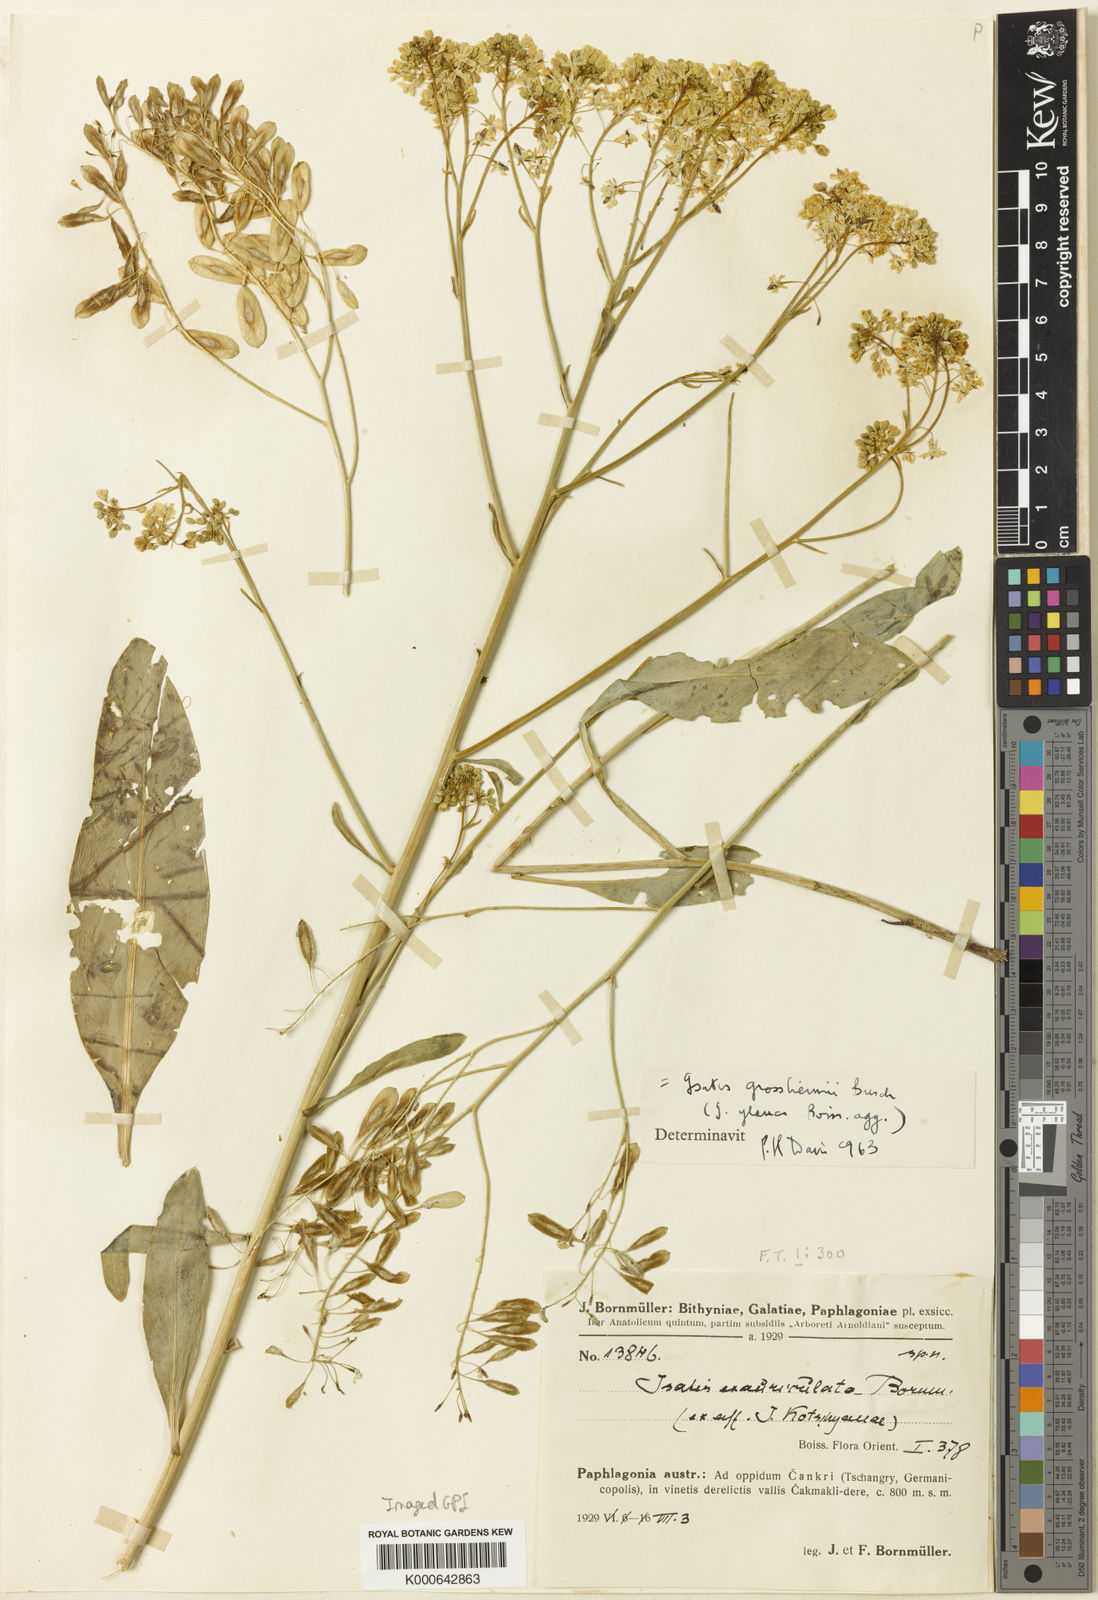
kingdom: Plantae
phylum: Tracheophyta
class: Magnoliopsida
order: Brassicales
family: Brassicaceae
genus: Isatis
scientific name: Isatis
